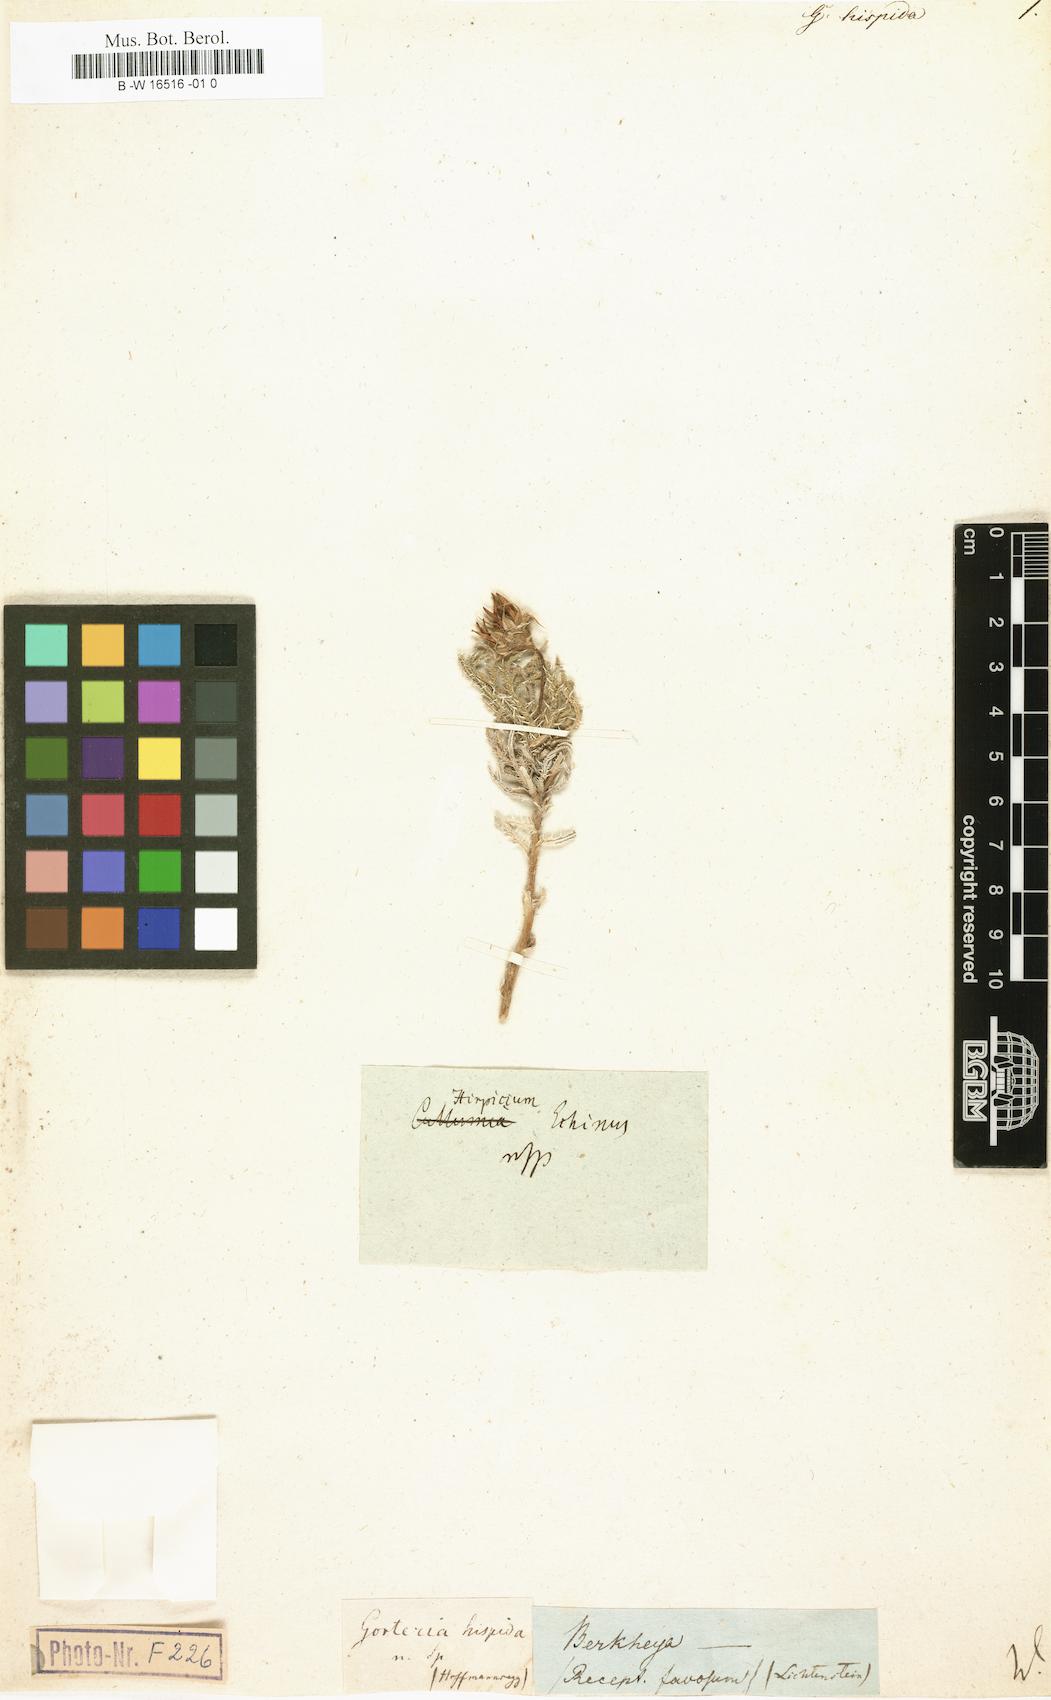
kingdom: Plantae
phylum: Tracheophyta
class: Magnoliopsida
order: Asterales
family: Asteraceae
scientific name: Asteraceae
